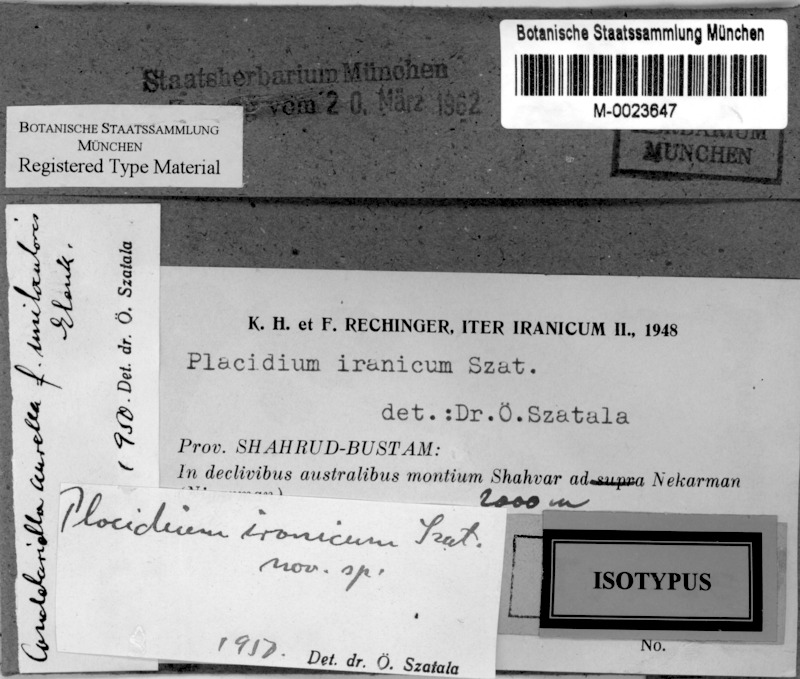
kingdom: Fungi
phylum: Ascomycota
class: Eurotiomycetes
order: Verrucariales
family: Verrucariaceae
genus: Placidium
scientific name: Placidium
